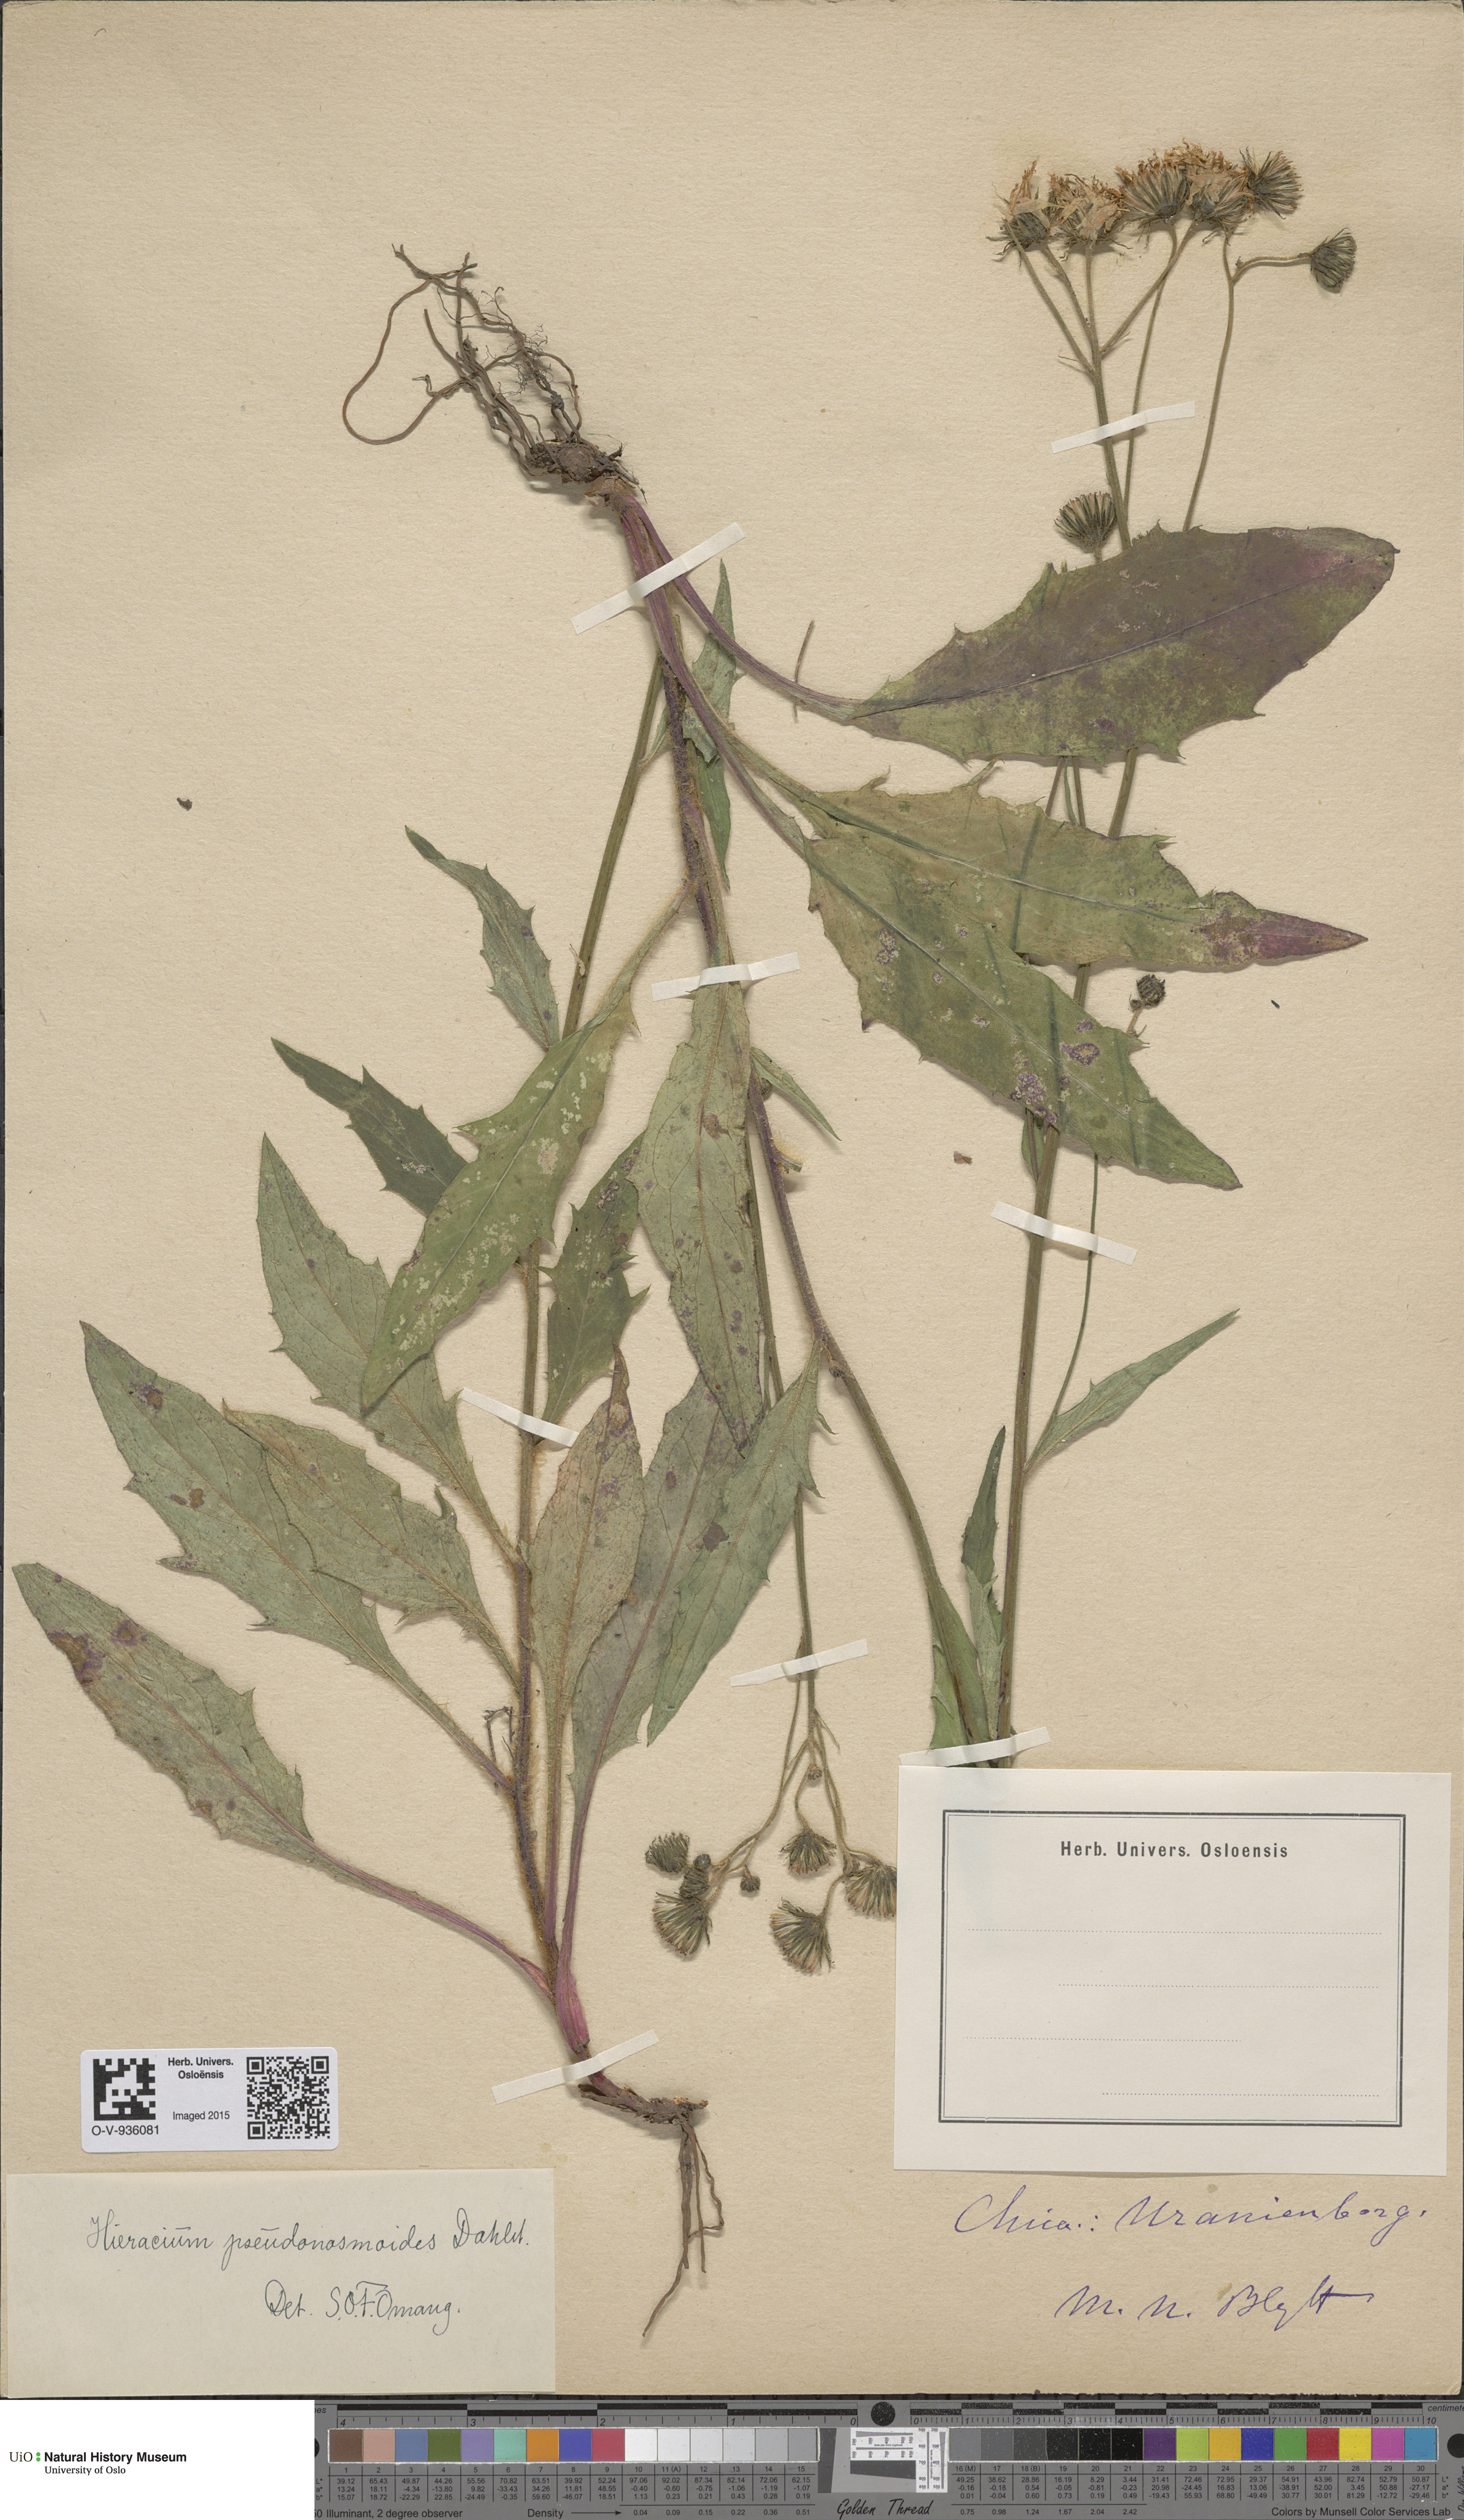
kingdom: Plantae
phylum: Tracheophyta
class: Magnoliopsida
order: Asterales
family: Asteraceae
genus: Hieracium
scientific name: Hieracium saxifragum
